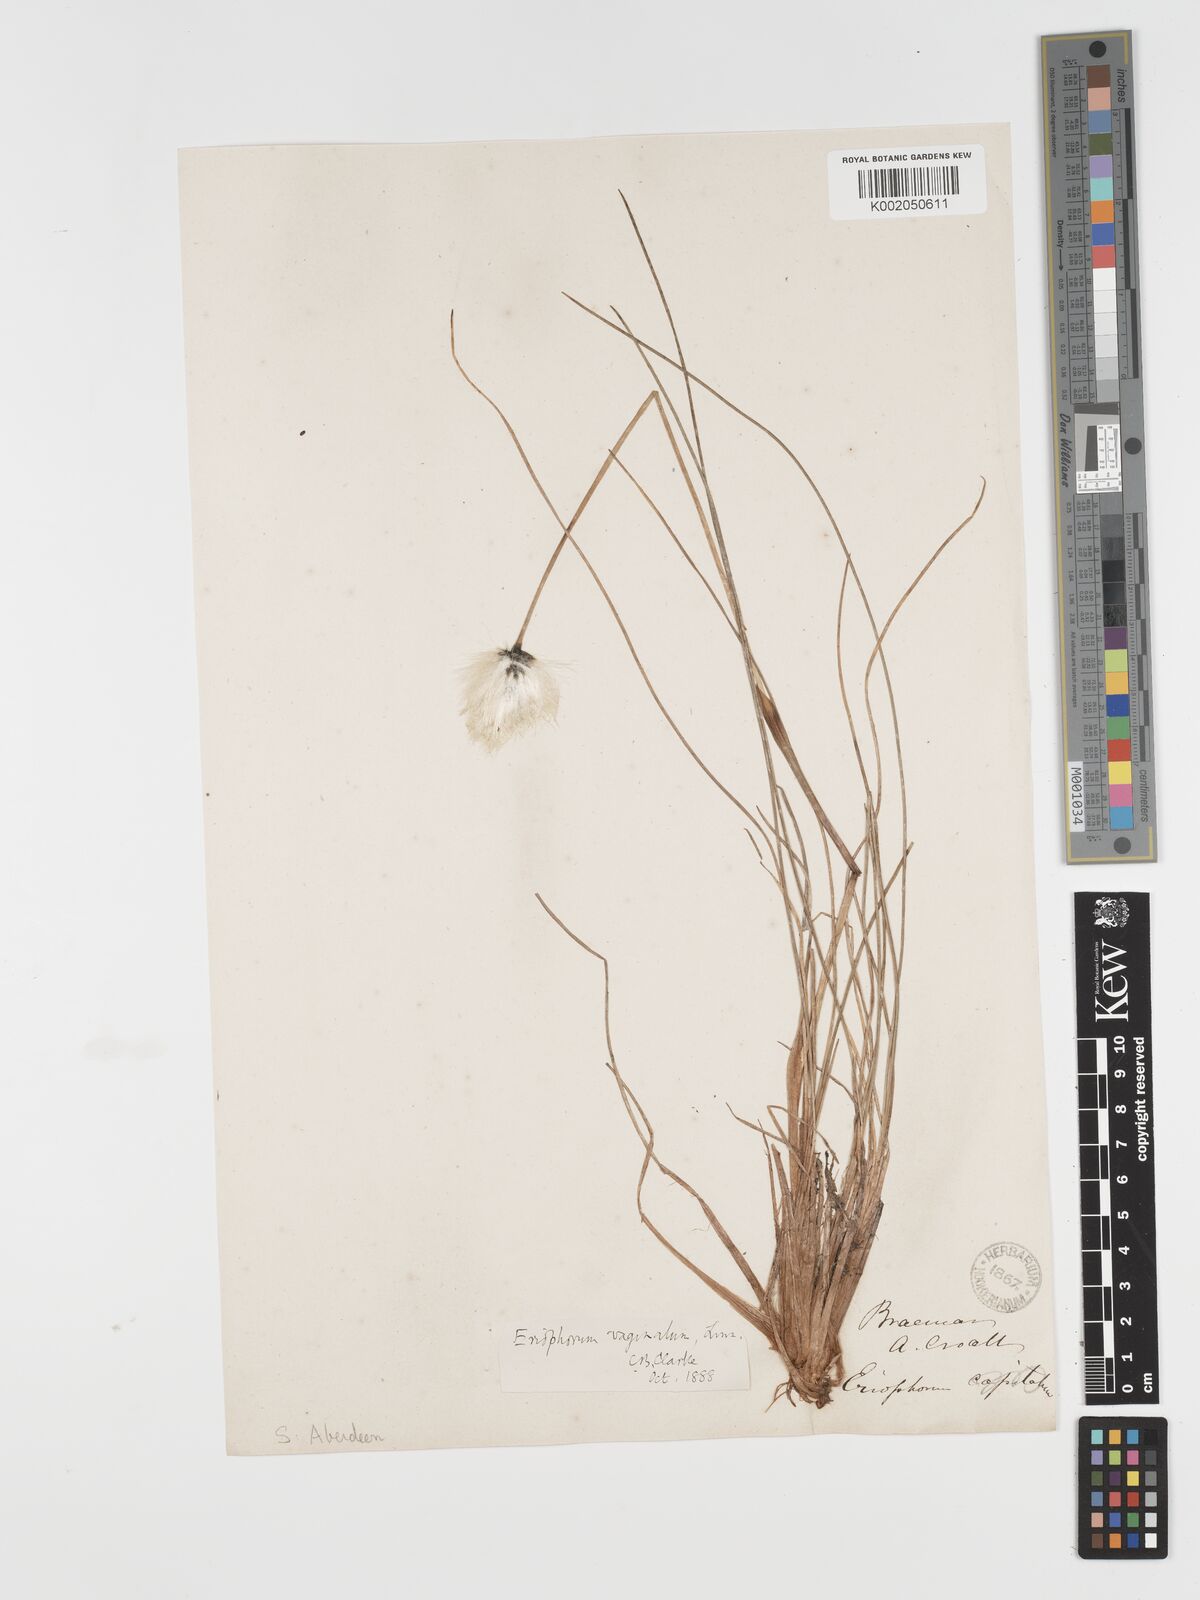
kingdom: Plantae
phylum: Tracheophyta
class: Liliopsida
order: Poales
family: Cyperaceae
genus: Eriophorum
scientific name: Eriophorum vaginatum
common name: Hare's-tail cottongrass
